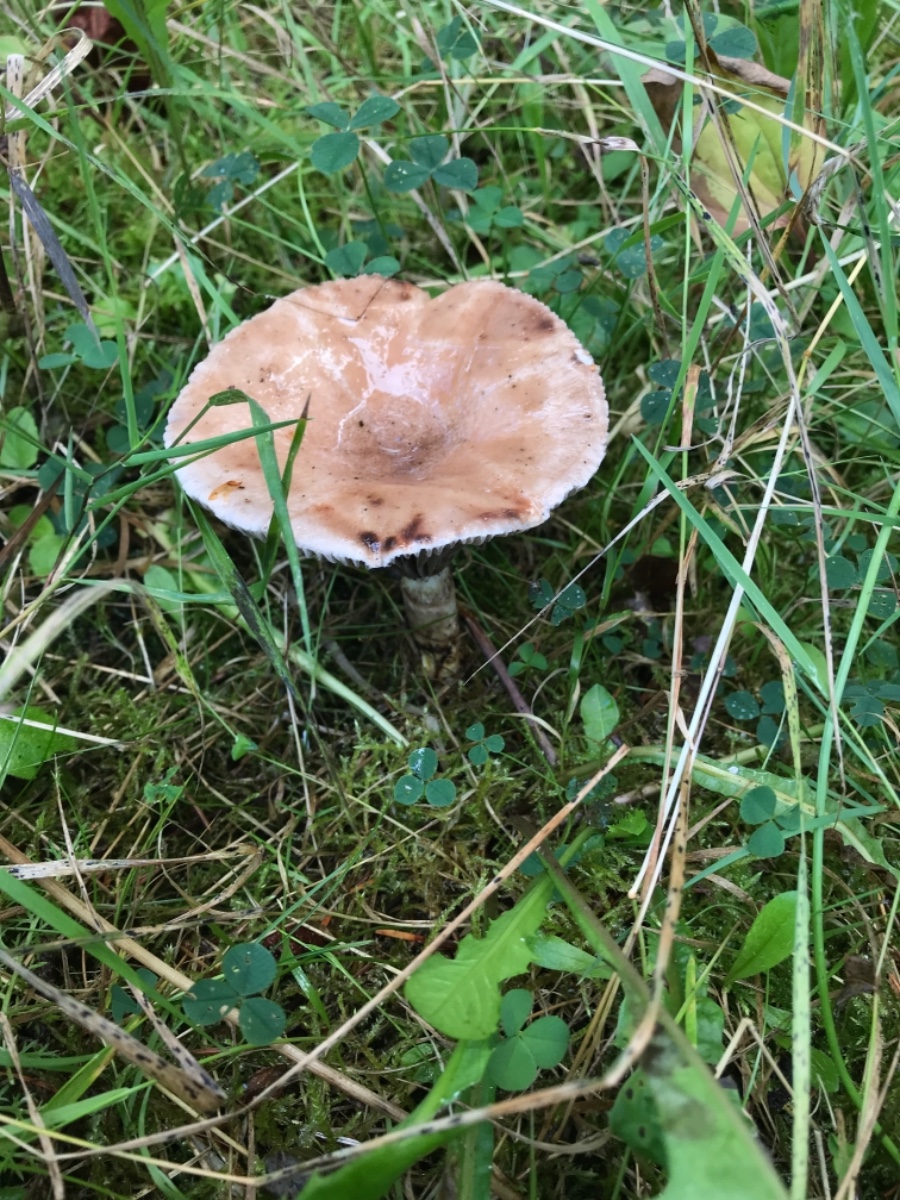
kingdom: Fungi
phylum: Basidiomycota
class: Agaricomycetes
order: Boletales
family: Gomphidiaceae
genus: Gomphidius
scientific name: Gomphidius glutinosus
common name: grå slimslør
